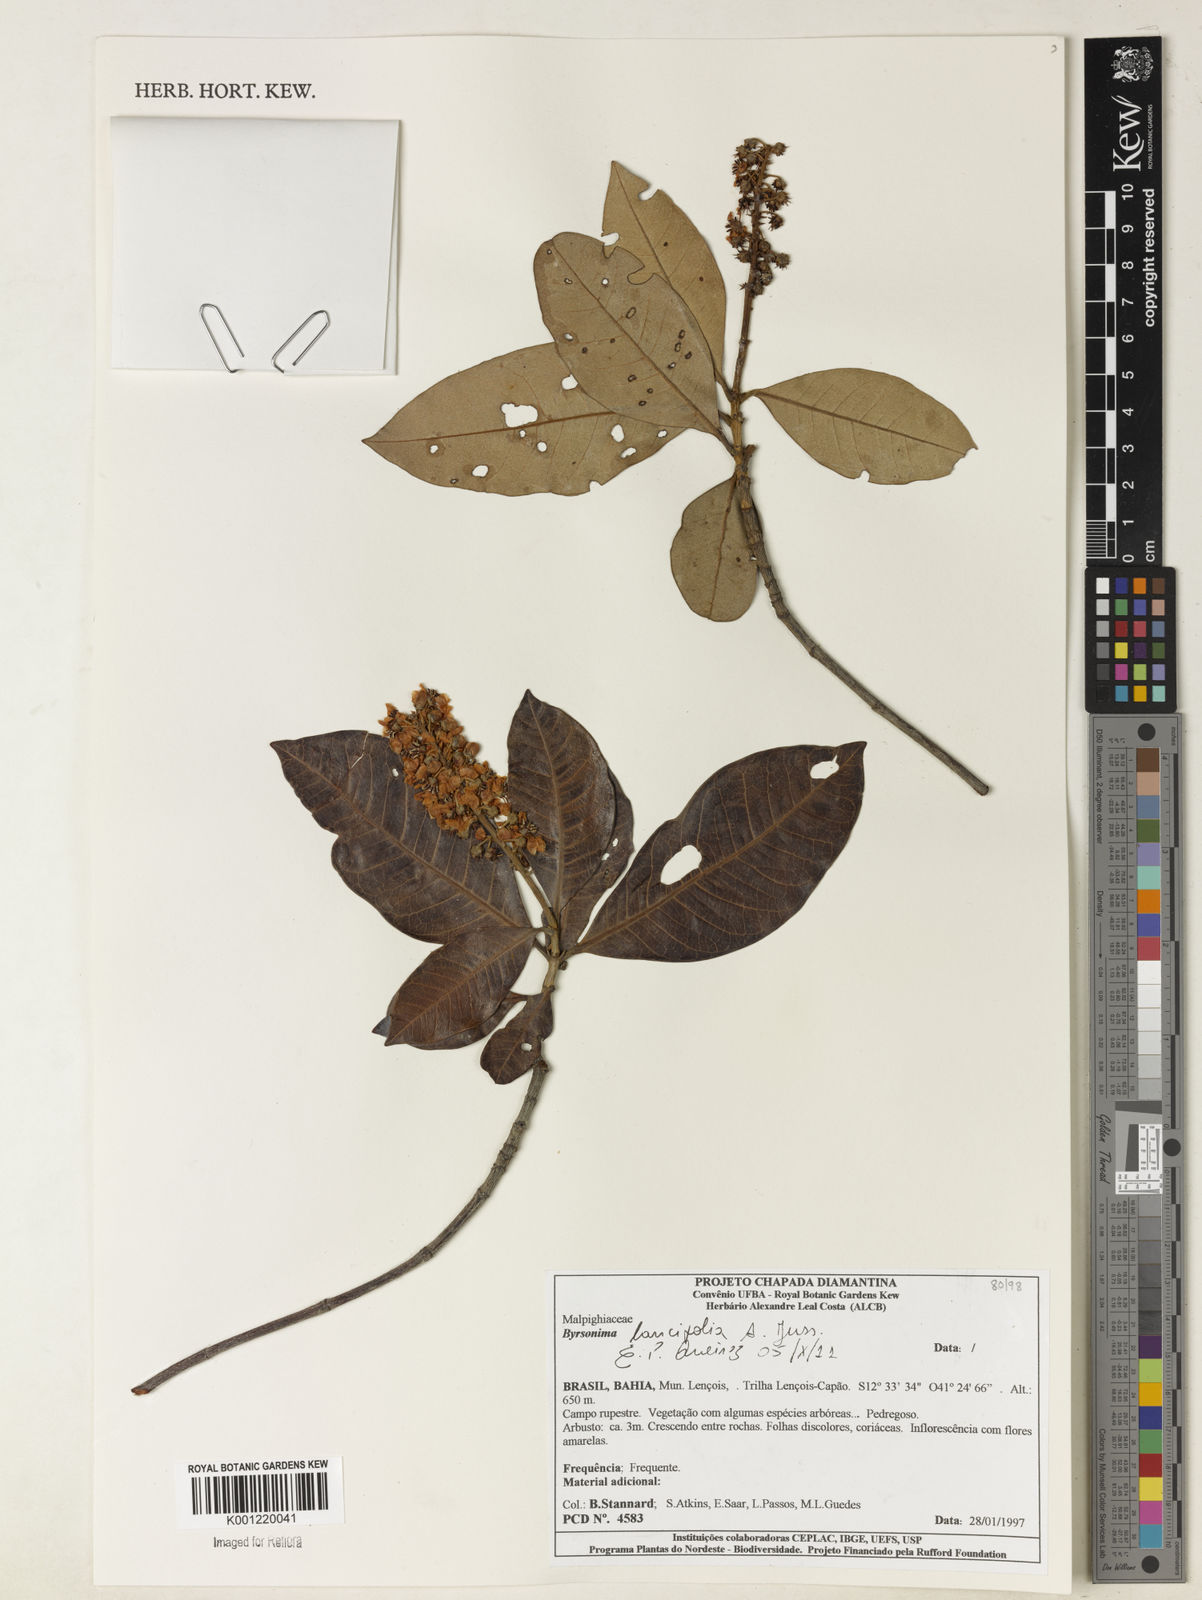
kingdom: Plantae
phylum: Tracheophyta
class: Magnoliopsida
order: Malpighiales
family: Malpighiaceae
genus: Byrsonima
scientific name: Byrsonima lancifolia
